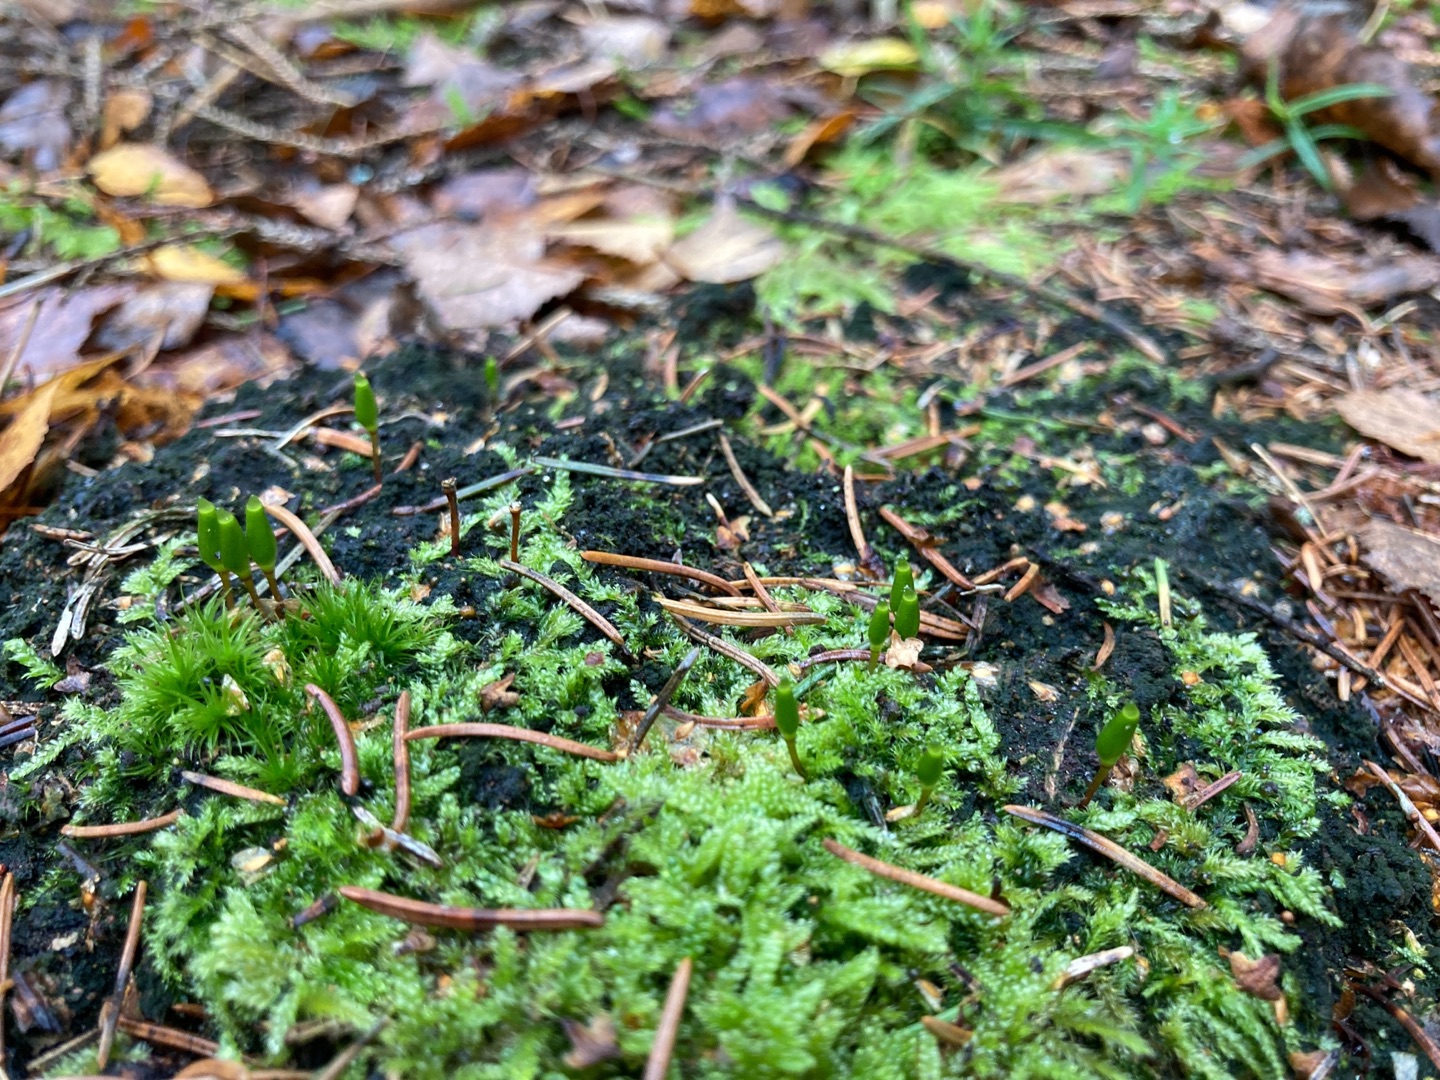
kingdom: Plantae
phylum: Bryophyta
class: Bryopsida
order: Buxbaumiales
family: Buxbaumiaceae
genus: Buxbaumia
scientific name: Buxbaumia viridis
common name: Grøn buxbaumia
